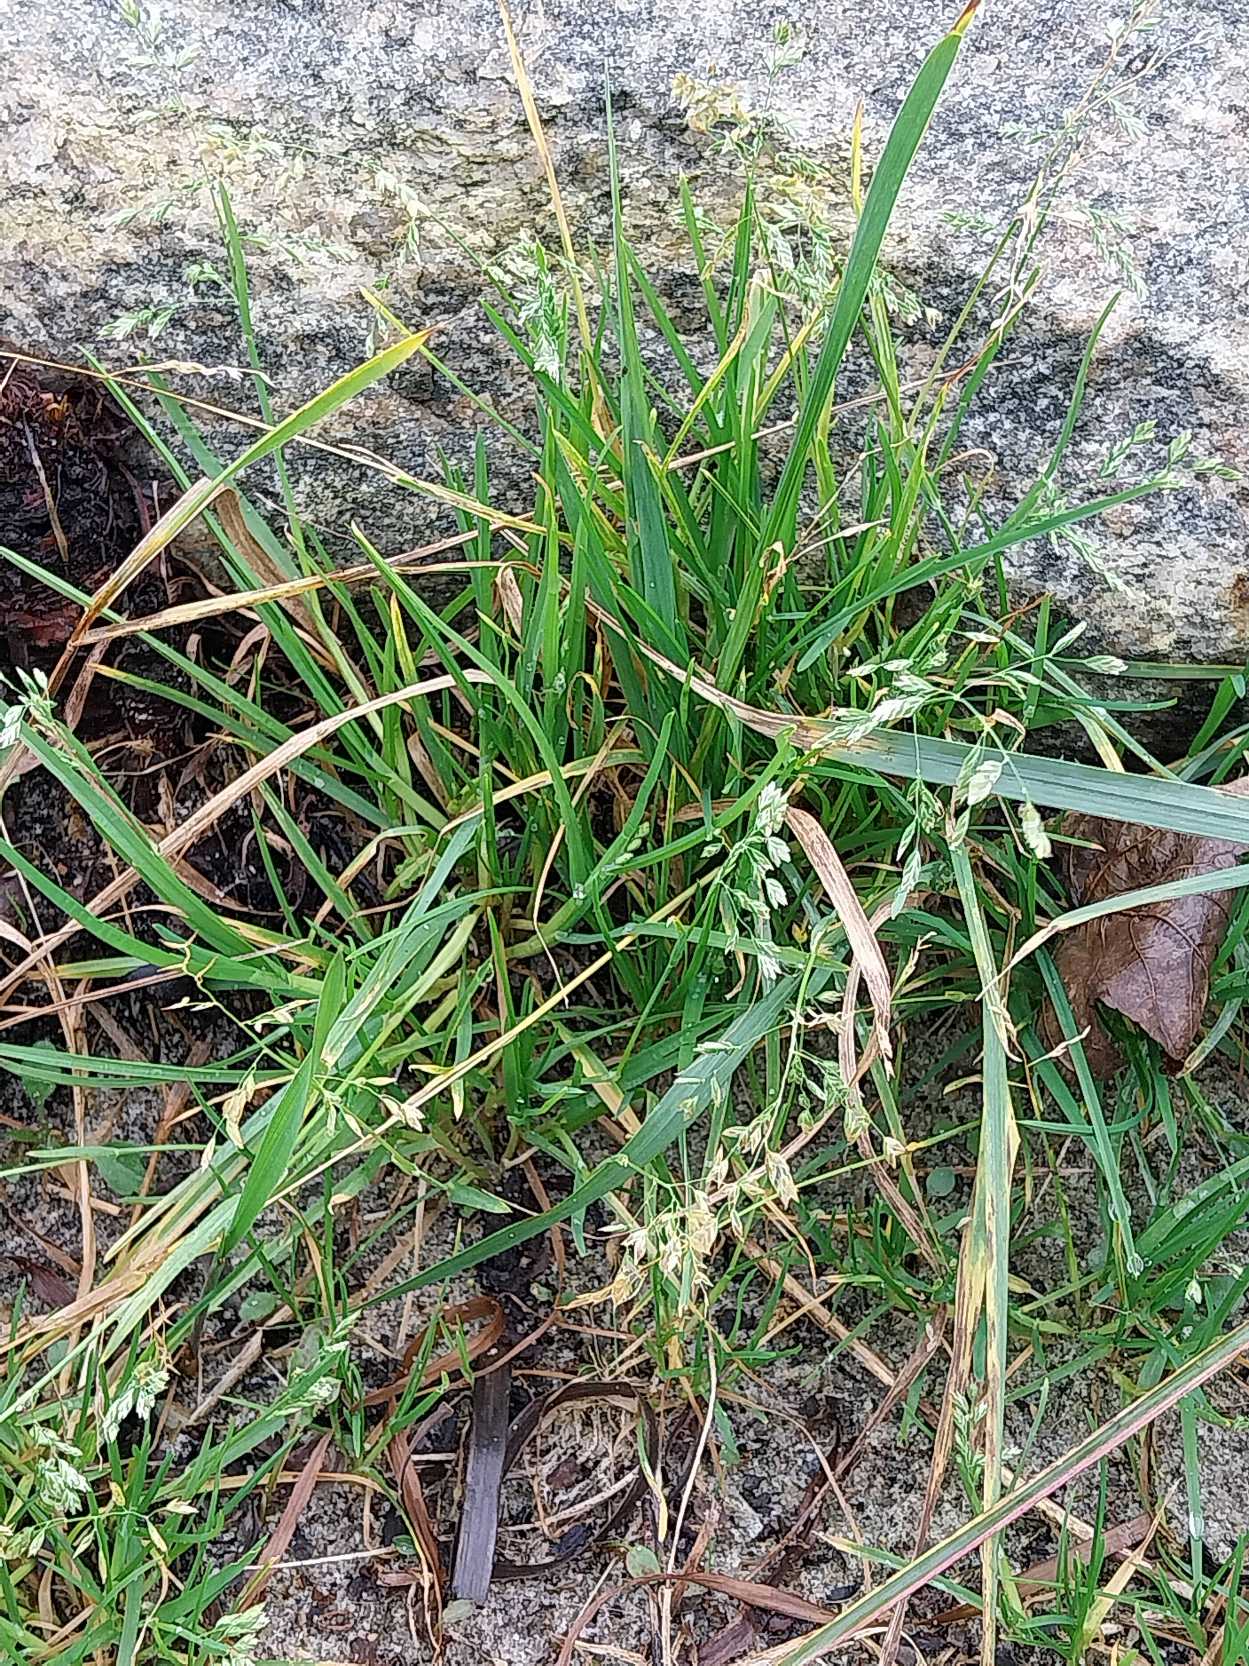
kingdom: Plantae
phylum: Tracheophyta
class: Liliopsida
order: Poales
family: Poaceae
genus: Poa
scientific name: Poa annua
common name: Enårig rapgræs
